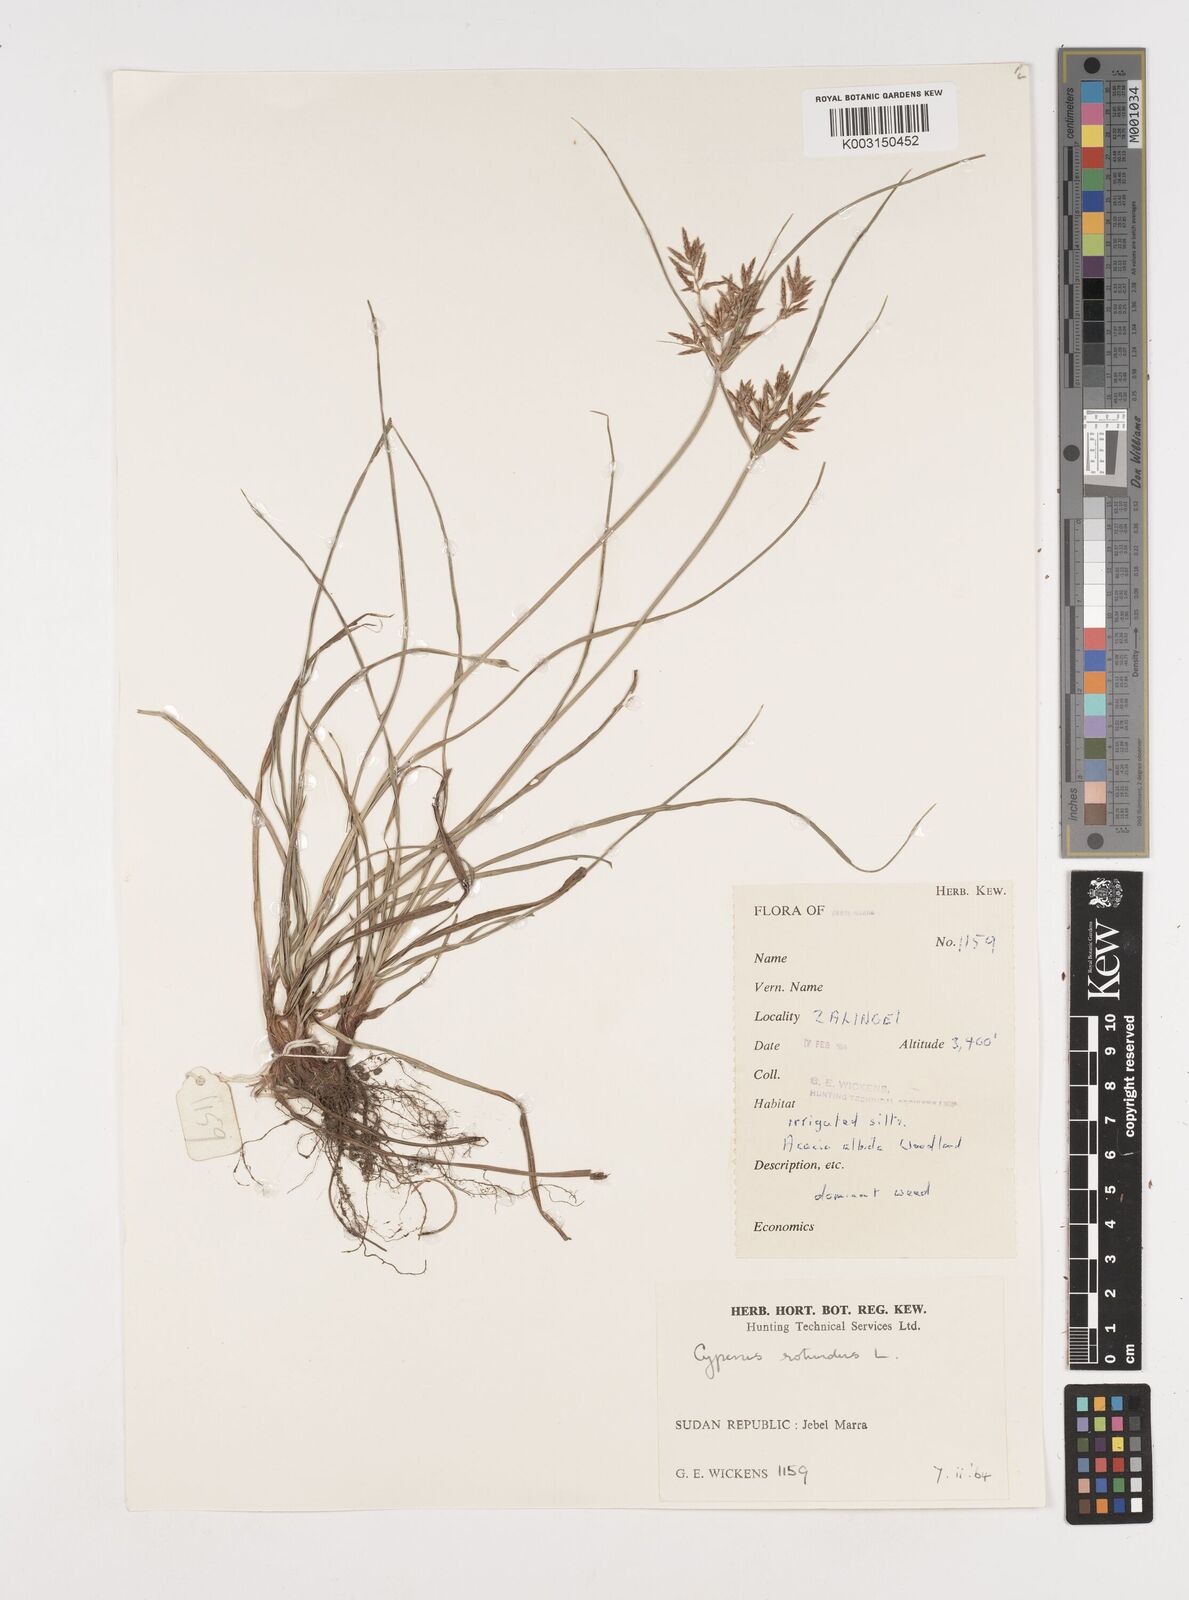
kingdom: Plantae
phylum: Tracheophyta
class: Liliopsida
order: Poales
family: Cyperaceae
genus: Cyperus
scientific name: Cyperus rotundus
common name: Nutgrass
